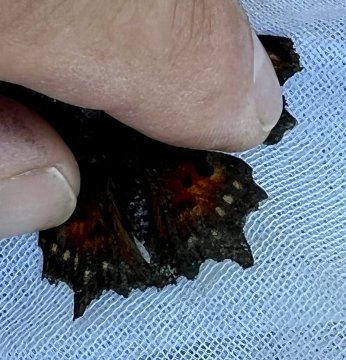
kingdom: Animalia
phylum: Arthropoda
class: Insecta
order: Lepidoptera
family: Nymphalidae
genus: Polygonia
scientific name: Polygonia faunus
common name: Green Comma
